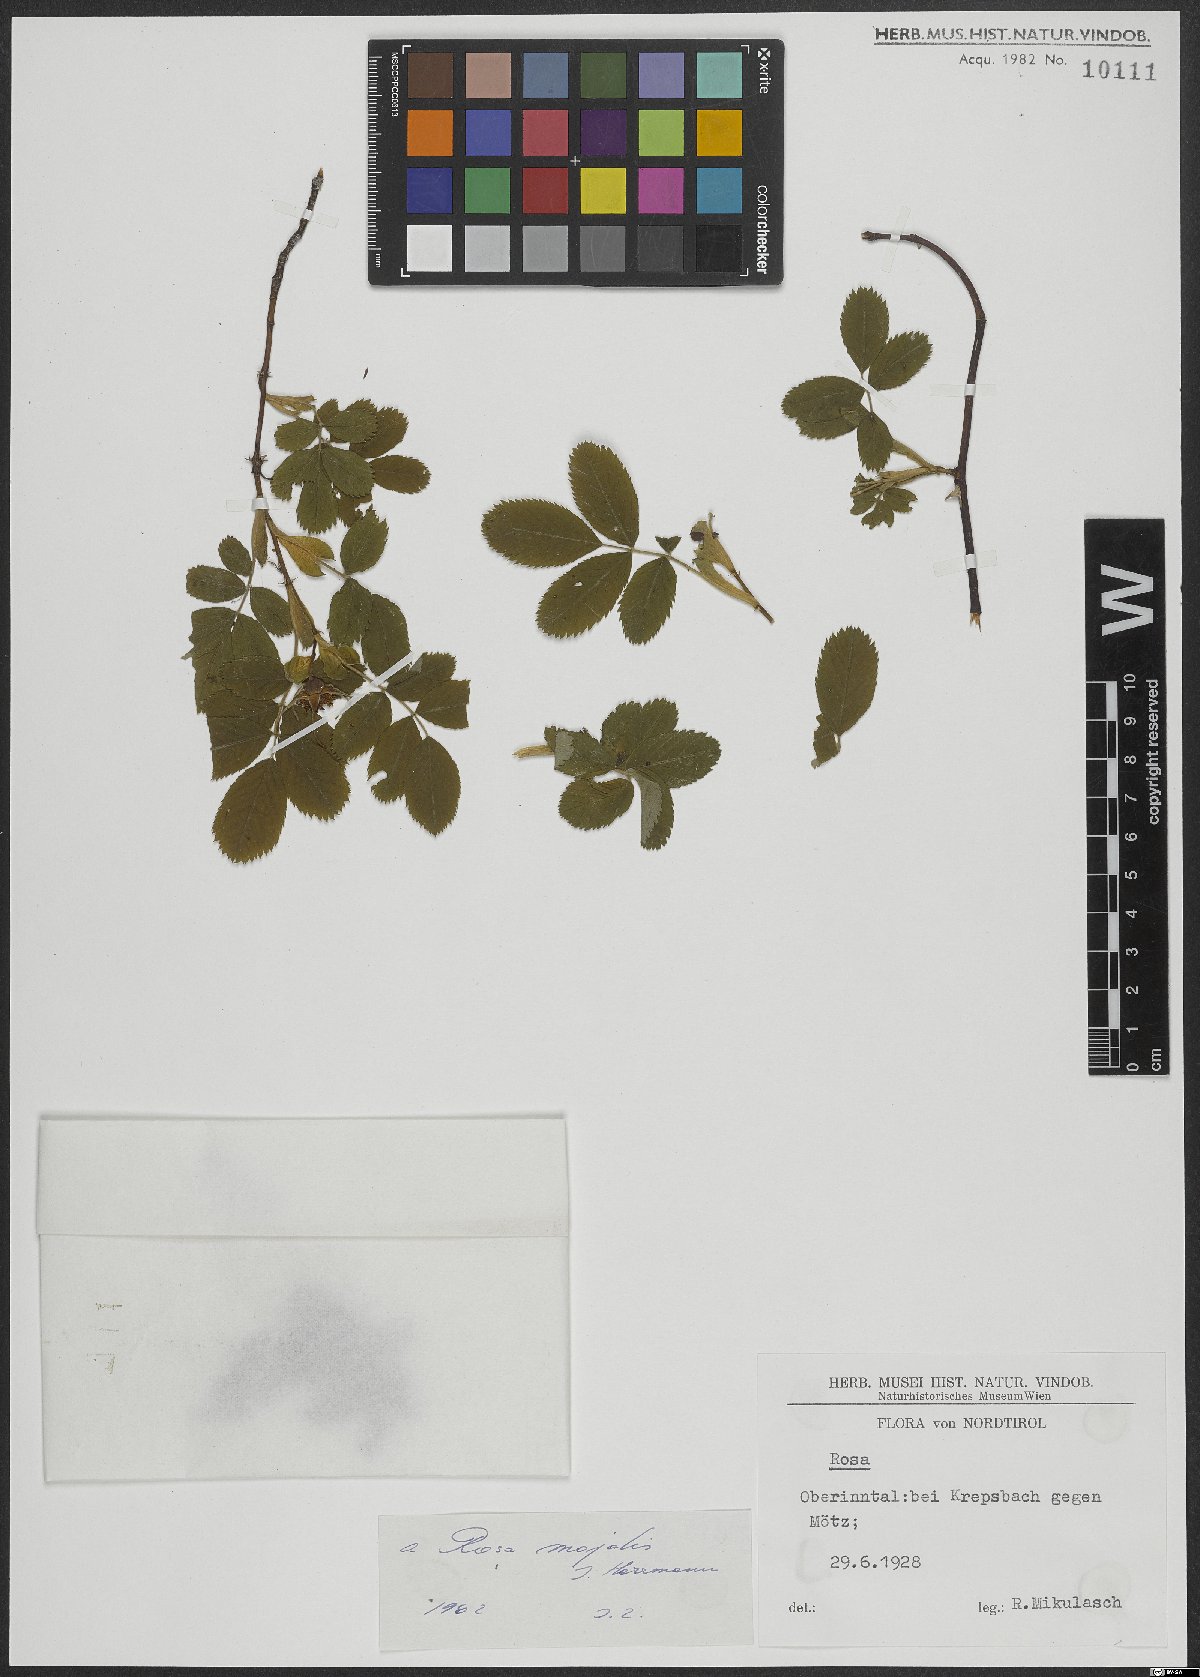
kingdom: Plantae
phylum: Tracheophyta
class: Magnoliopsida
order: Rosales
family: Rosaceae
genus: Rosa
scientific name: Rosa majalis
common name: Cinnamon rose
